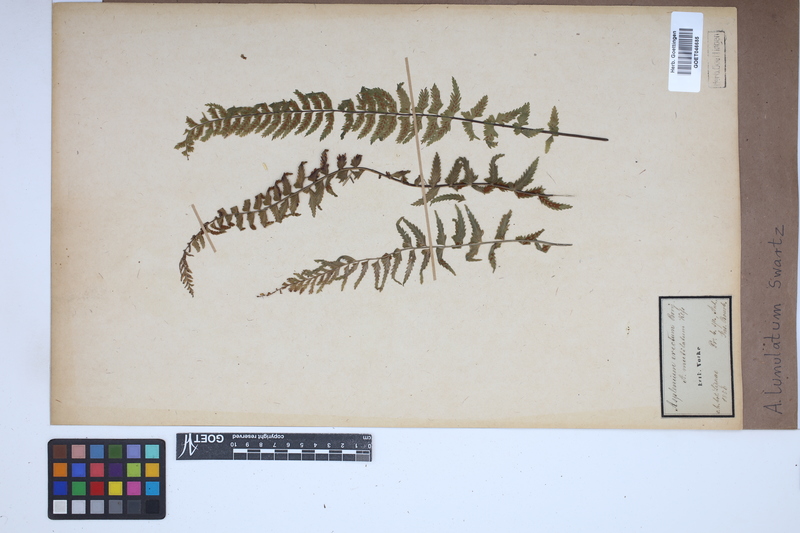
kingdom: Plantae
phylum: Tracheophyta
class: Polypodiopsida
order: Polypodiales
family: Aspleniaceae
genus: Asplenium
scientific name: Asplenium lunulatum
